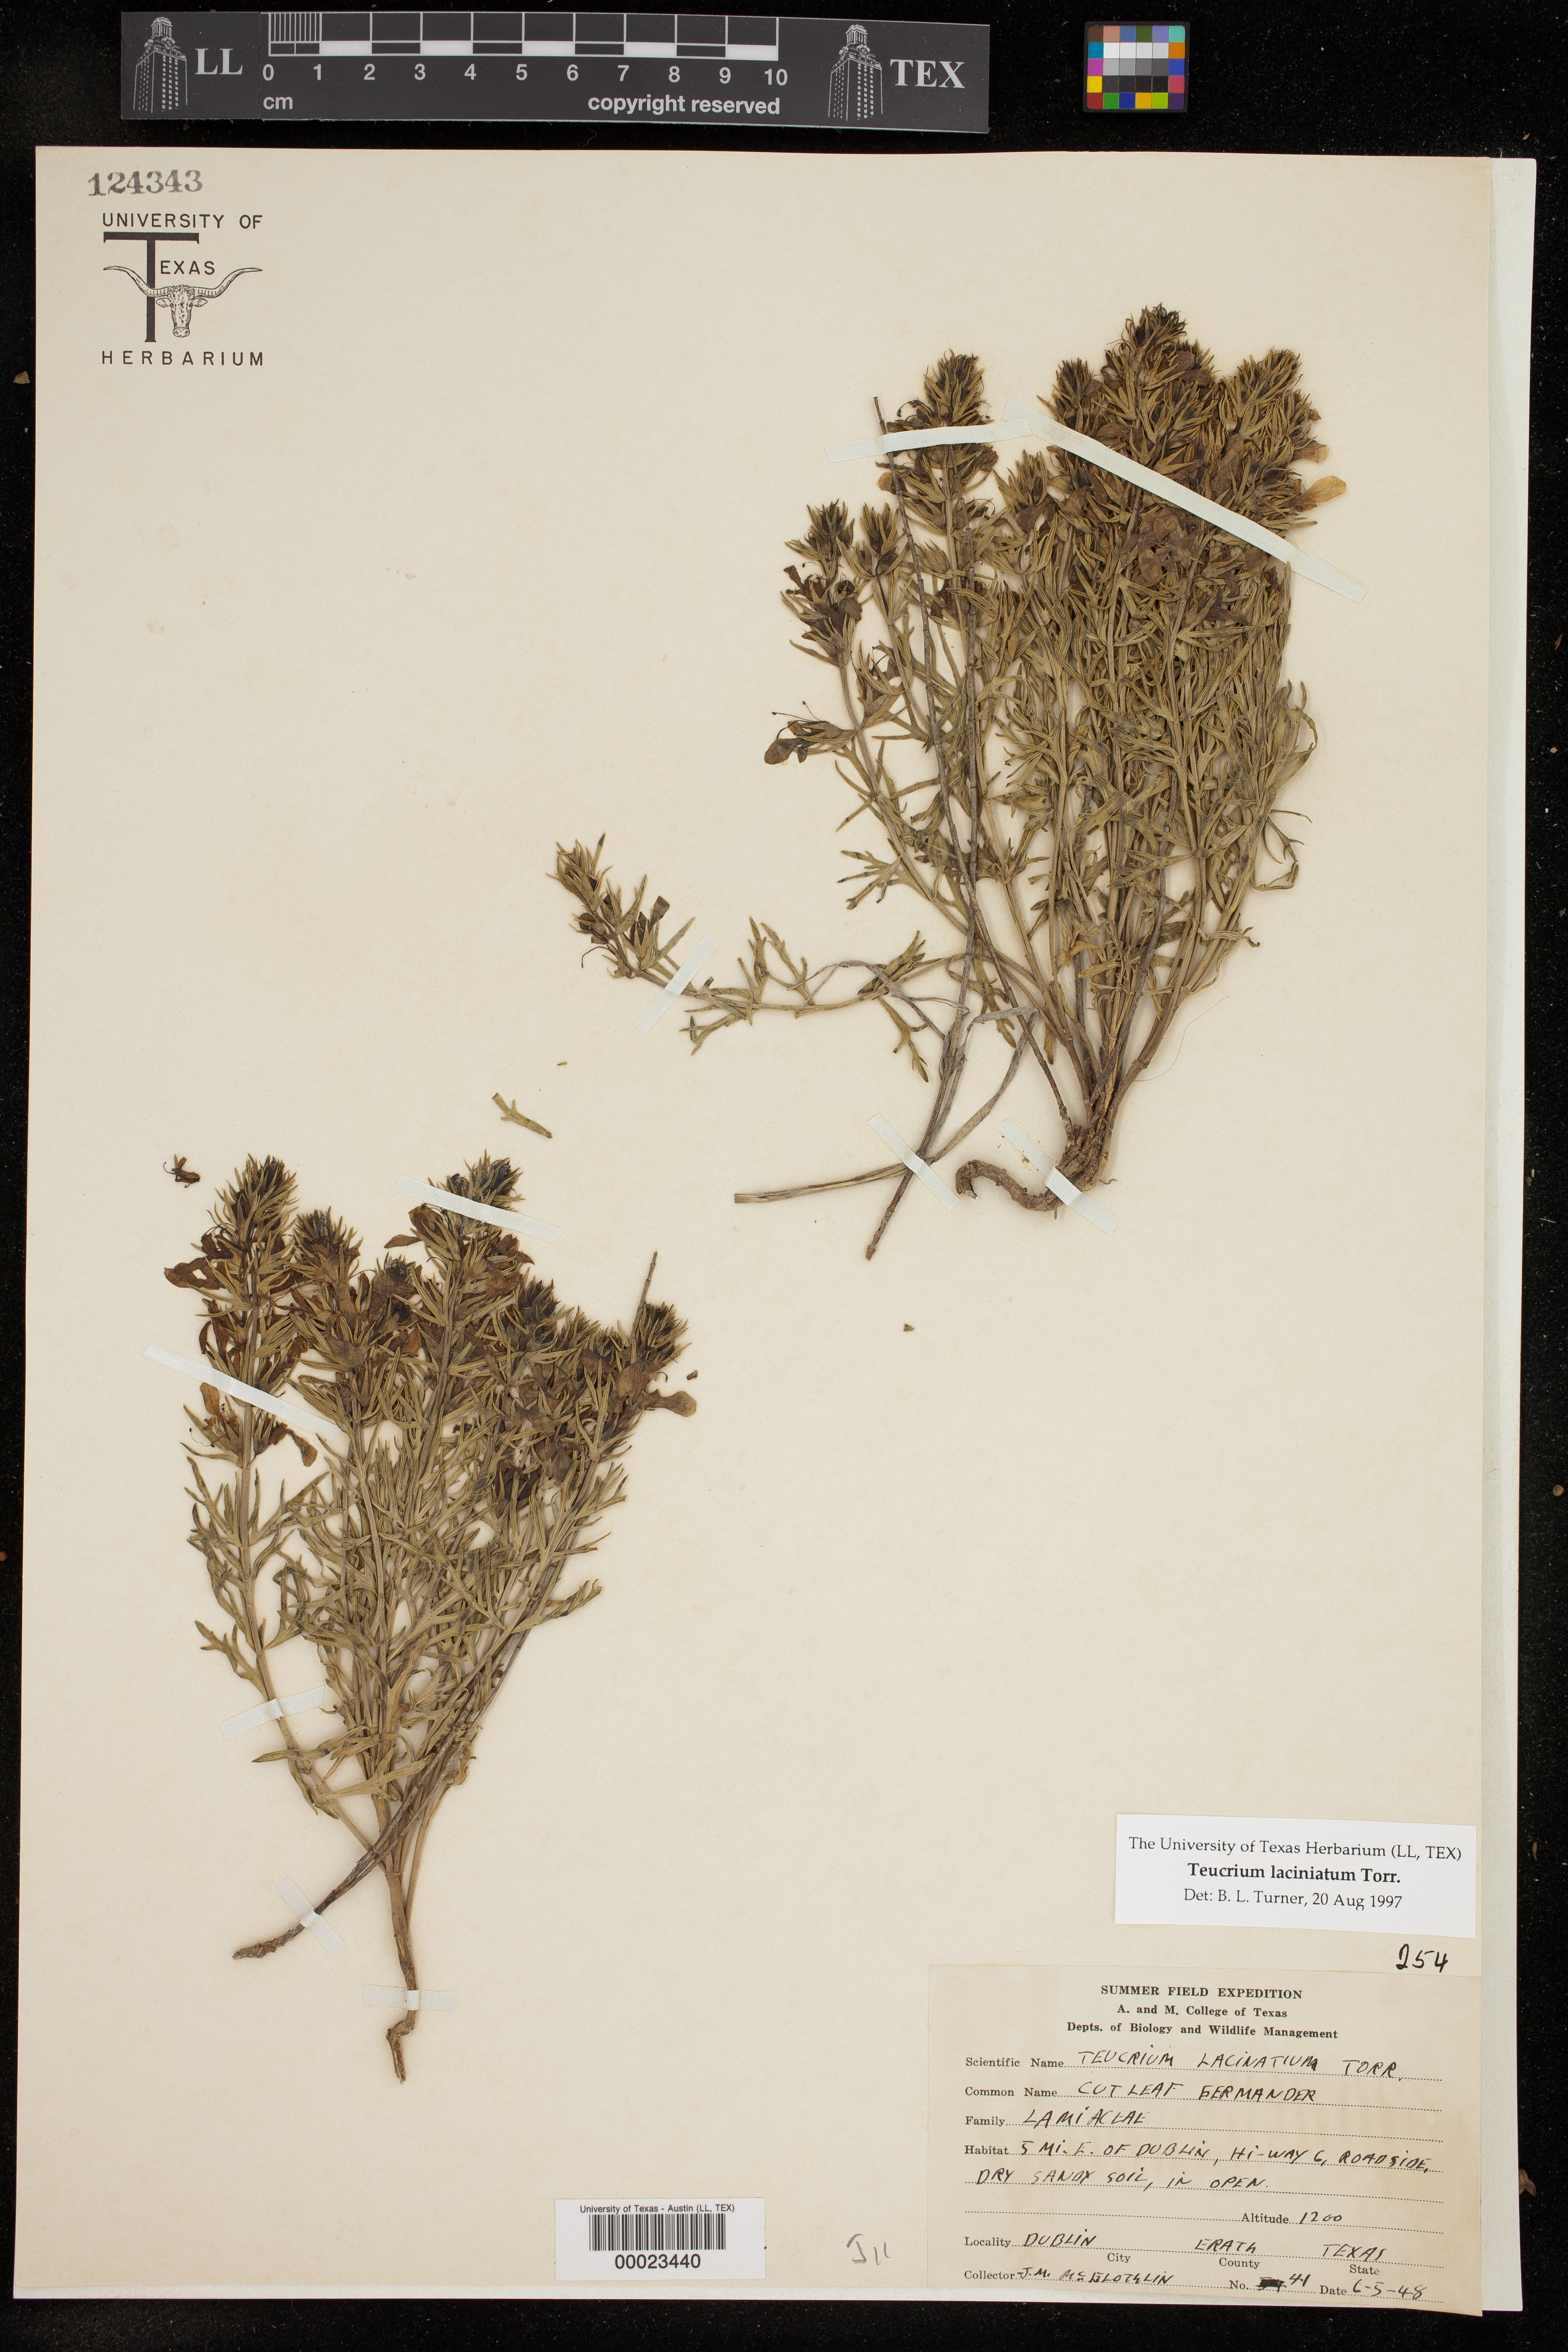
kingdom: Plantae
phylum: Tracheophyta
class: Magnoliopsida
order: Lamiales
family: Lamiaceae
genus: Teucrium
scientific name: Teucrium laciniatum
